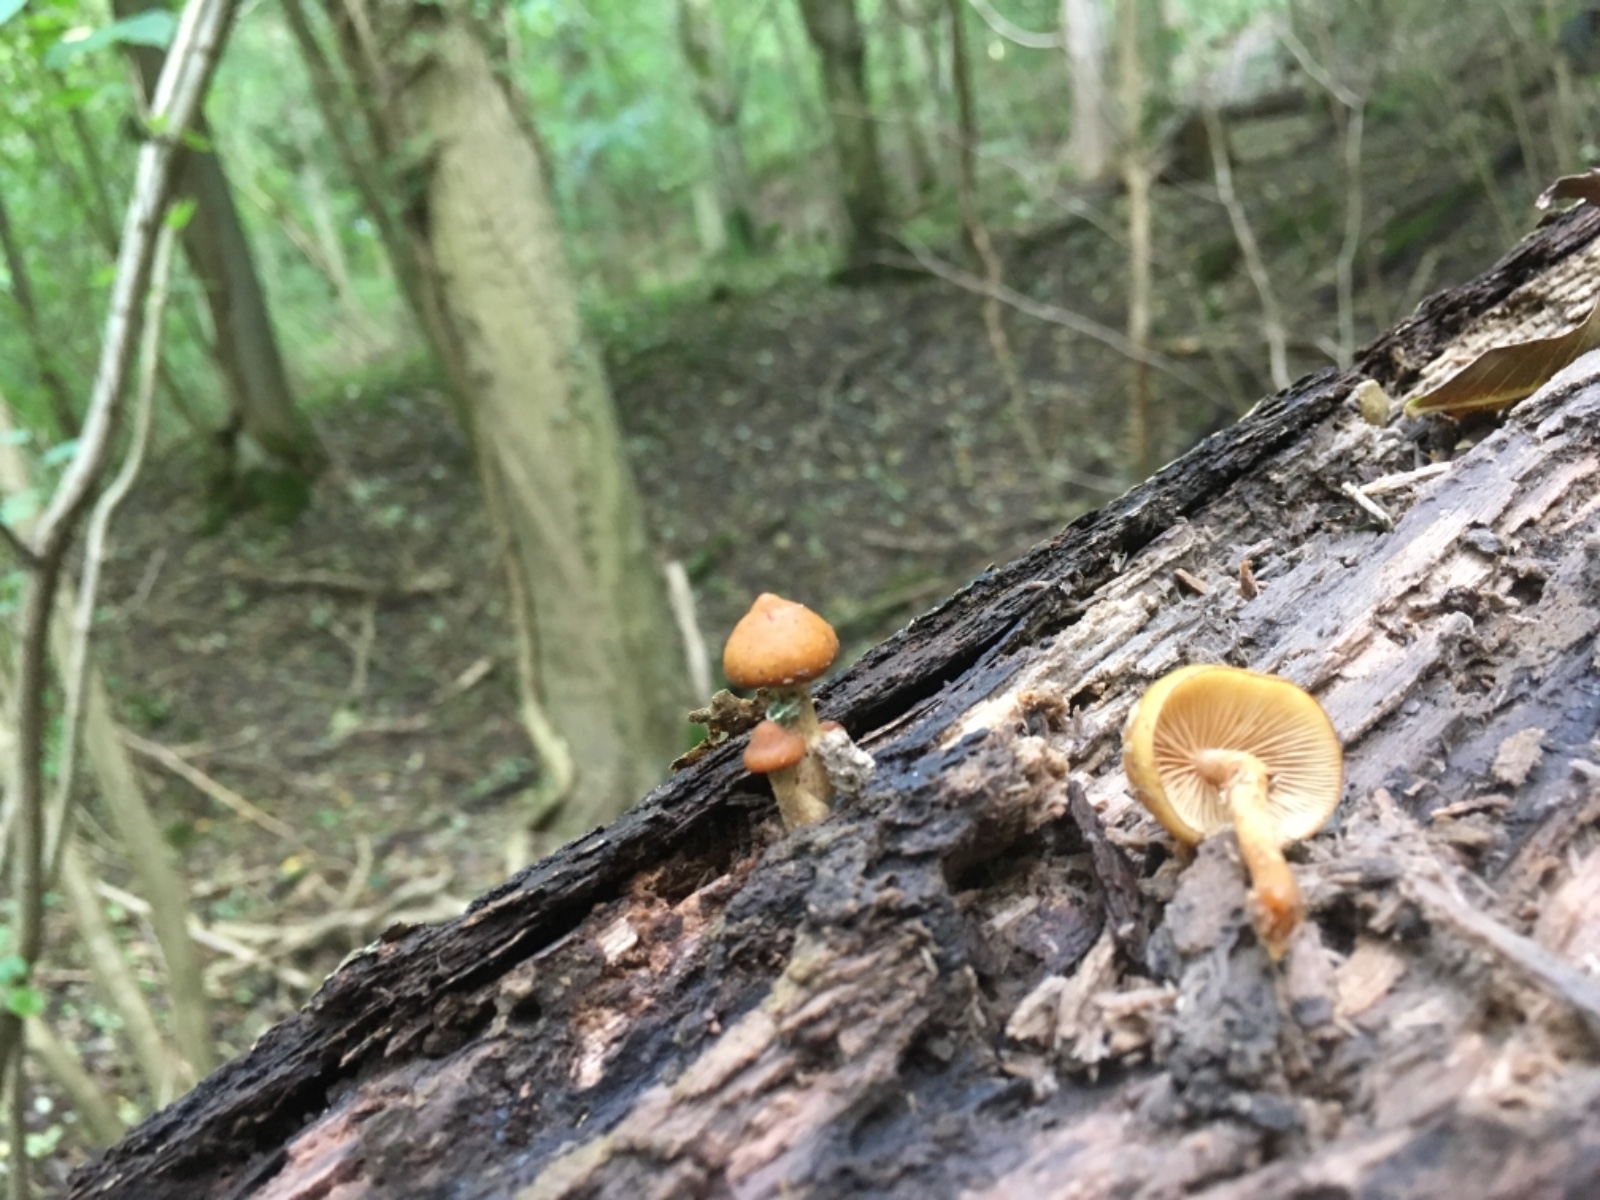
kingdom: Fungi
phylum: Basidiomycota
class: Agaricomycetes
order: Agaricales
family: Hymenogastraceae
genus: Galerina
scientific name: Galerina marginata
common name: randbæltet hjelmhat
